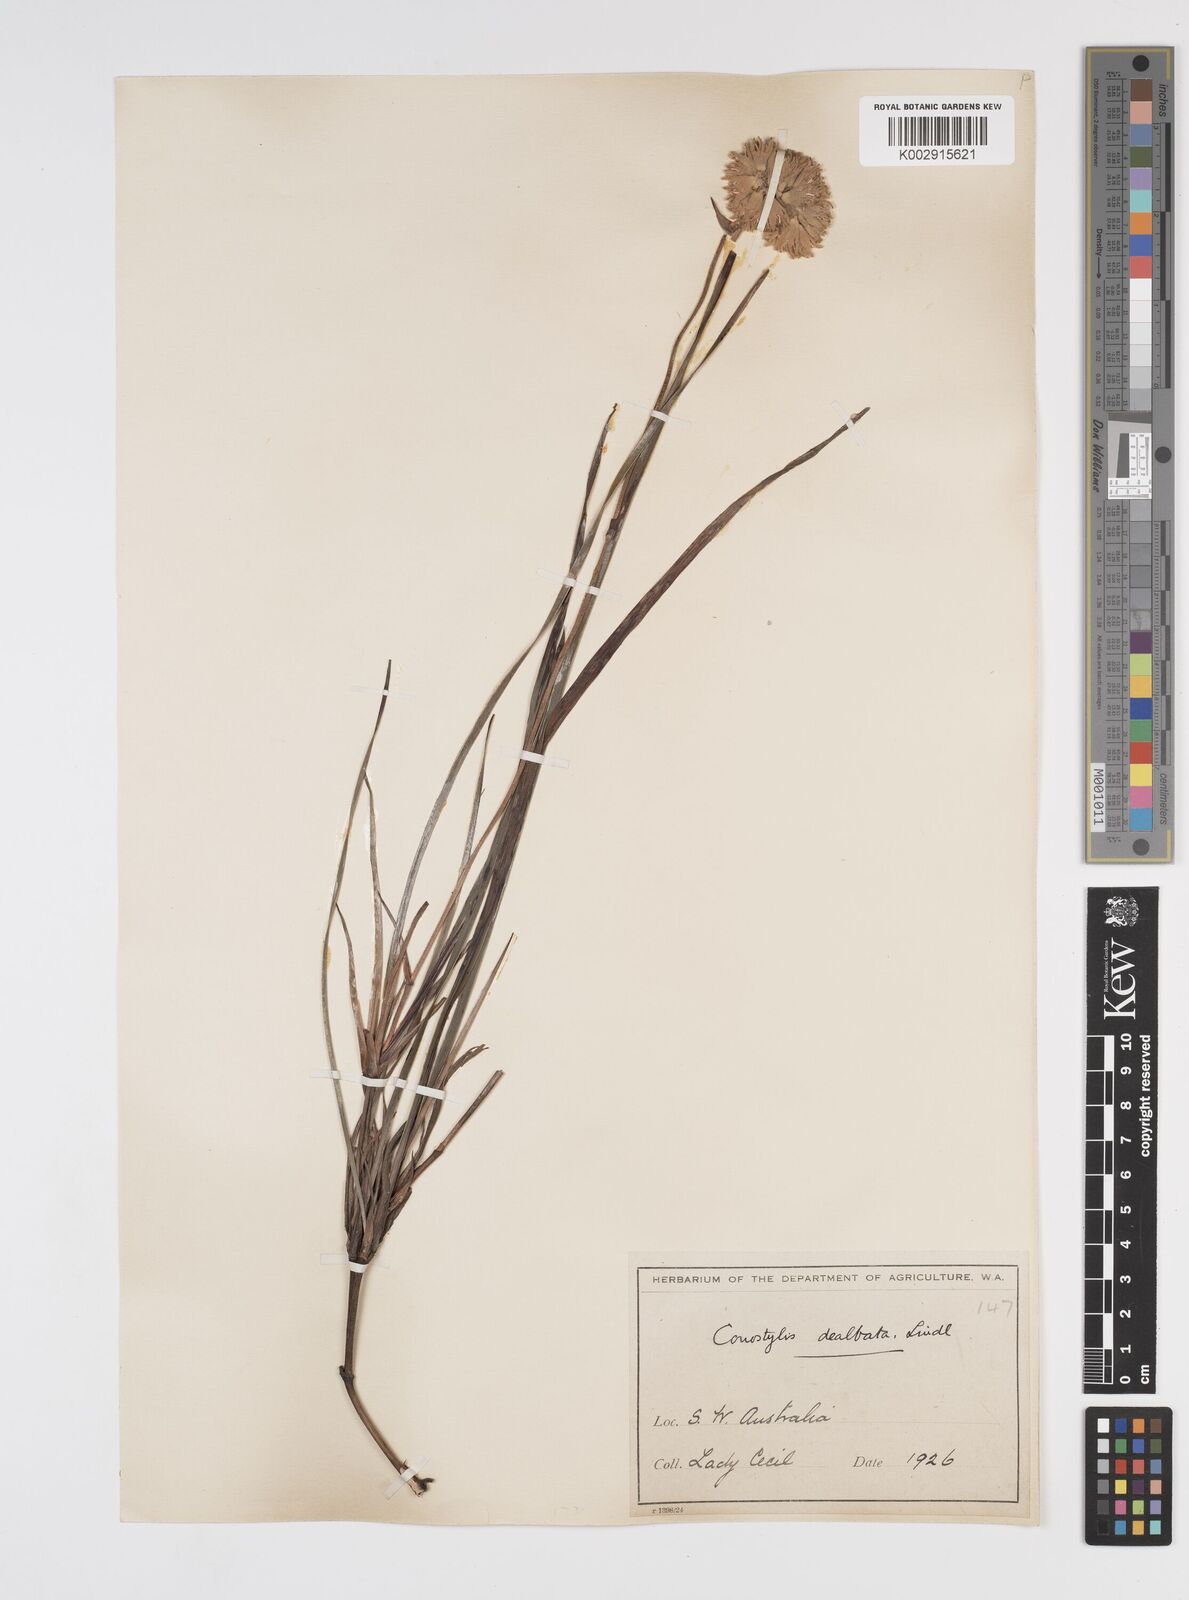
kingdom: Plantae
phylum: Tracheophyta
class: Liliopsida
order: Commelinales
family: Haemodoraceae
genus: Conostylis
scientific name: Conostylis candicans
